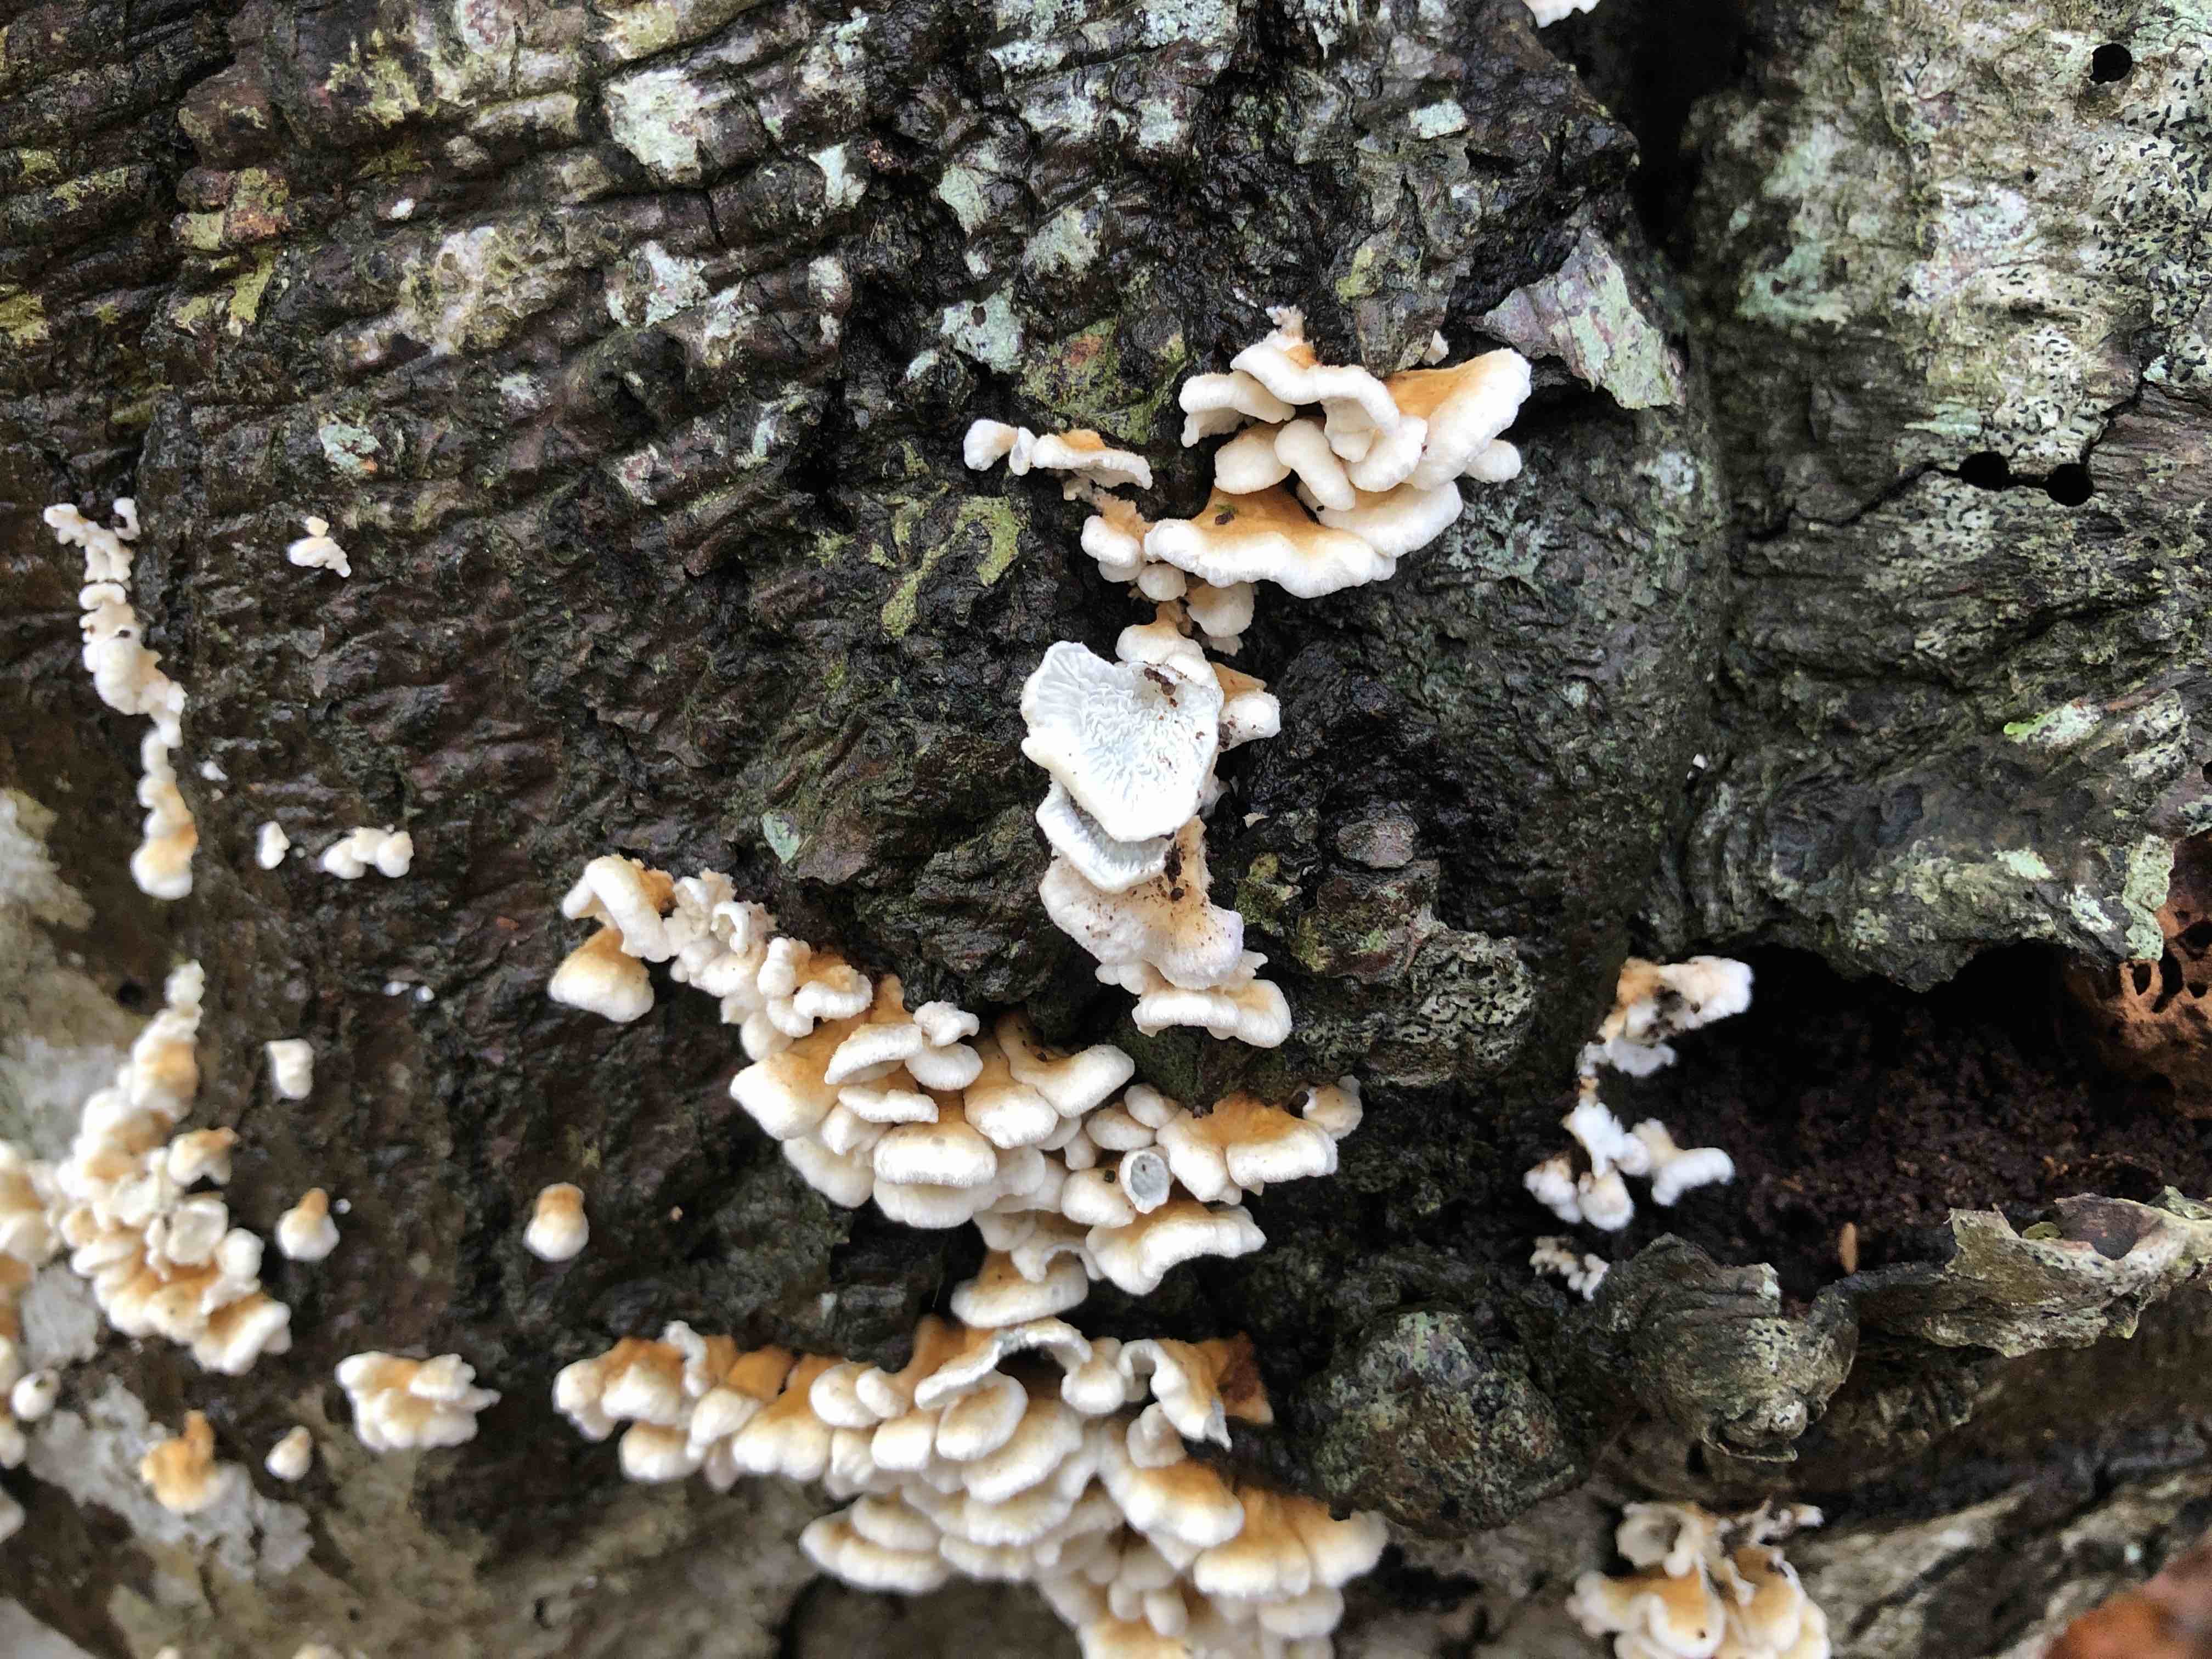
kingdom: Fungi
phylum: Basidiomycota
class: Agaricomycetes
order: Amylocorticiales
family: Amylocorticiaceae
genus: Plicaturopsis
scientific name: Plicaturopsis crispa
